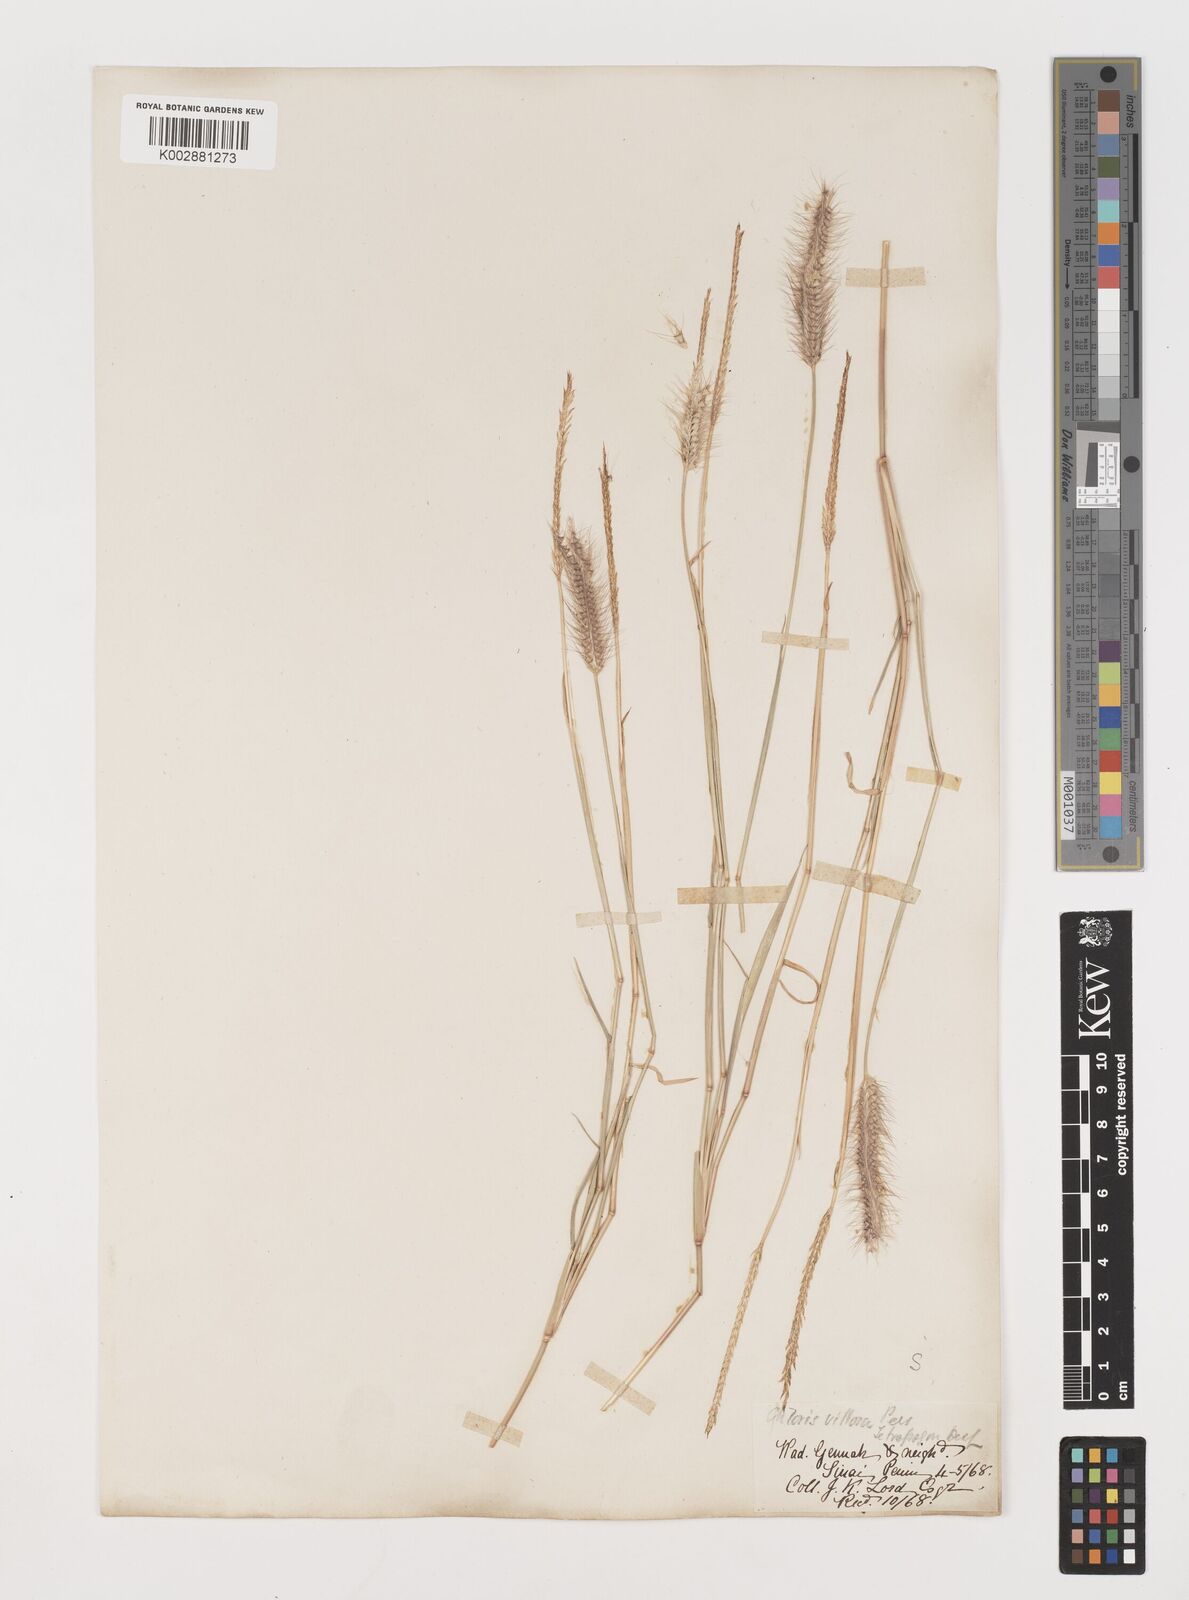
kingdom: Plantae
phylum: Tracheophyta
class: Liliopsida
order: Poales
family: Poaceae
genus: Tetrapogon
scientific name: Tetrapogon villosus
